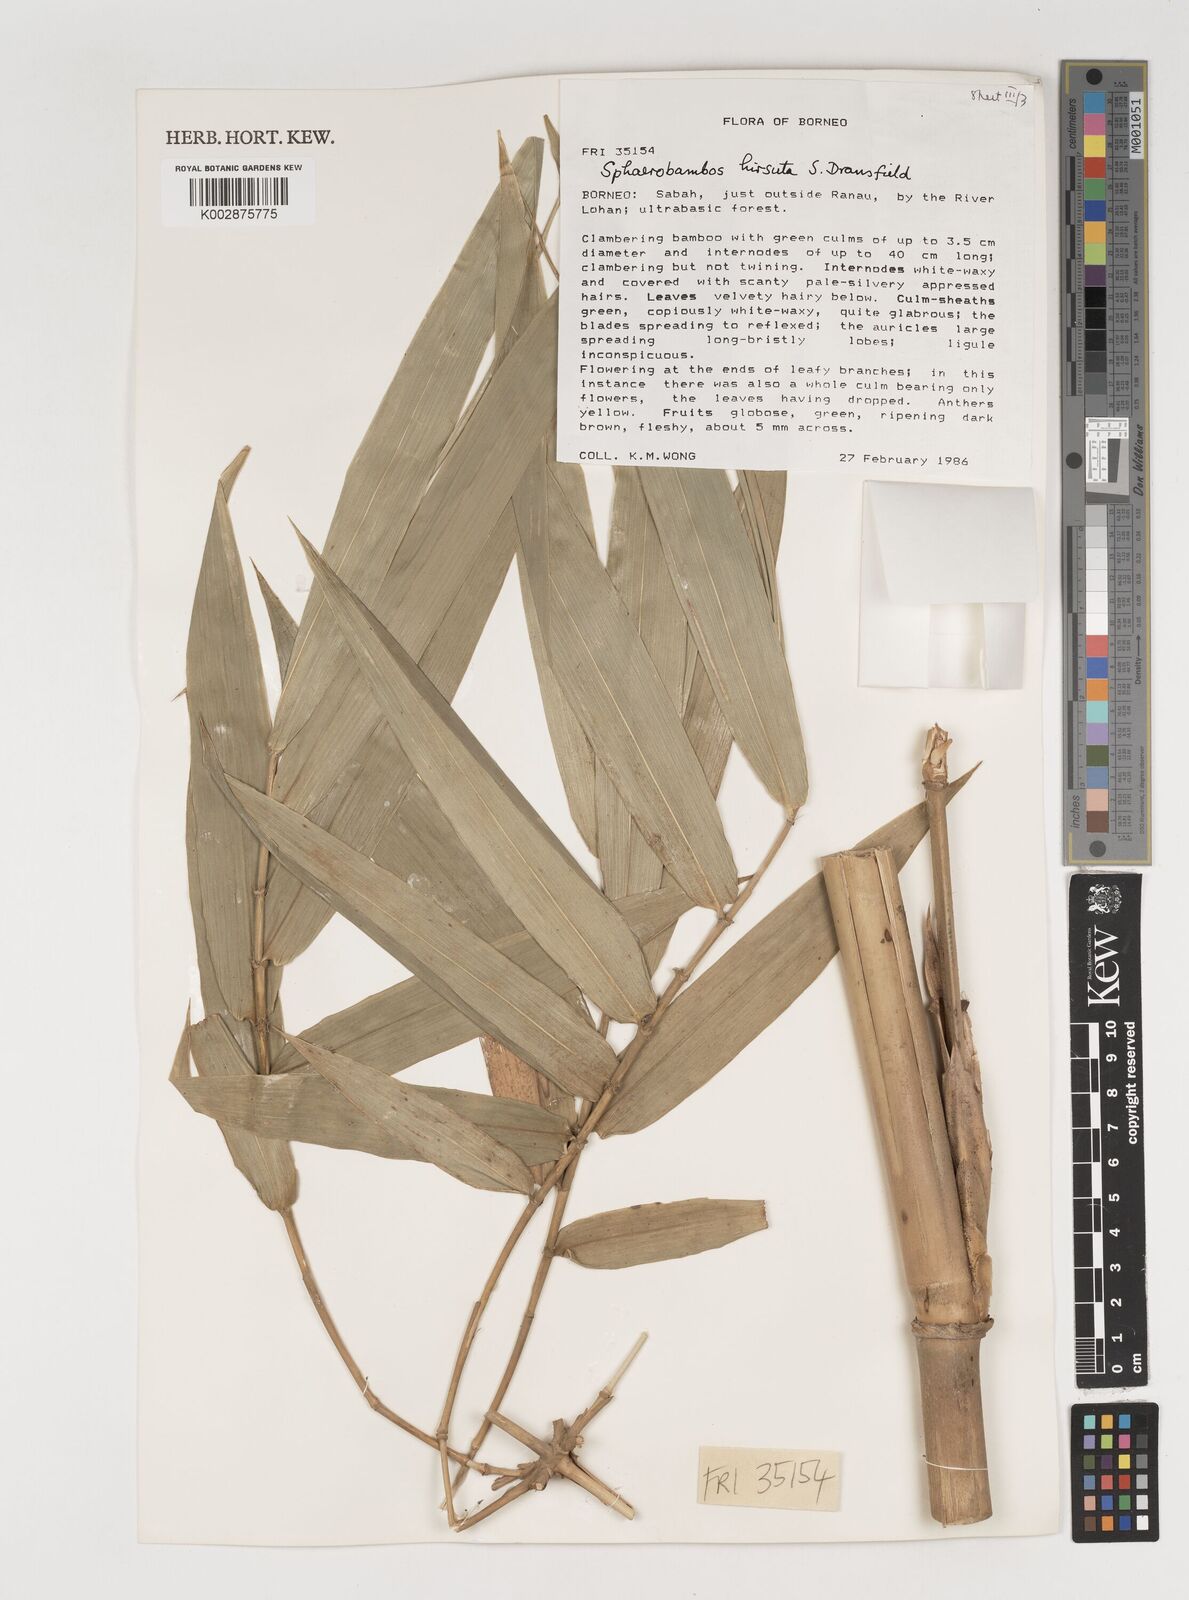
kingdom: Plantae
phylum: Tracheophyta
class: Liliopsida
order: Poales
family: Poaceae
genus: Sphaerobambos
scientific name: Sphaerobambos hirsuta
